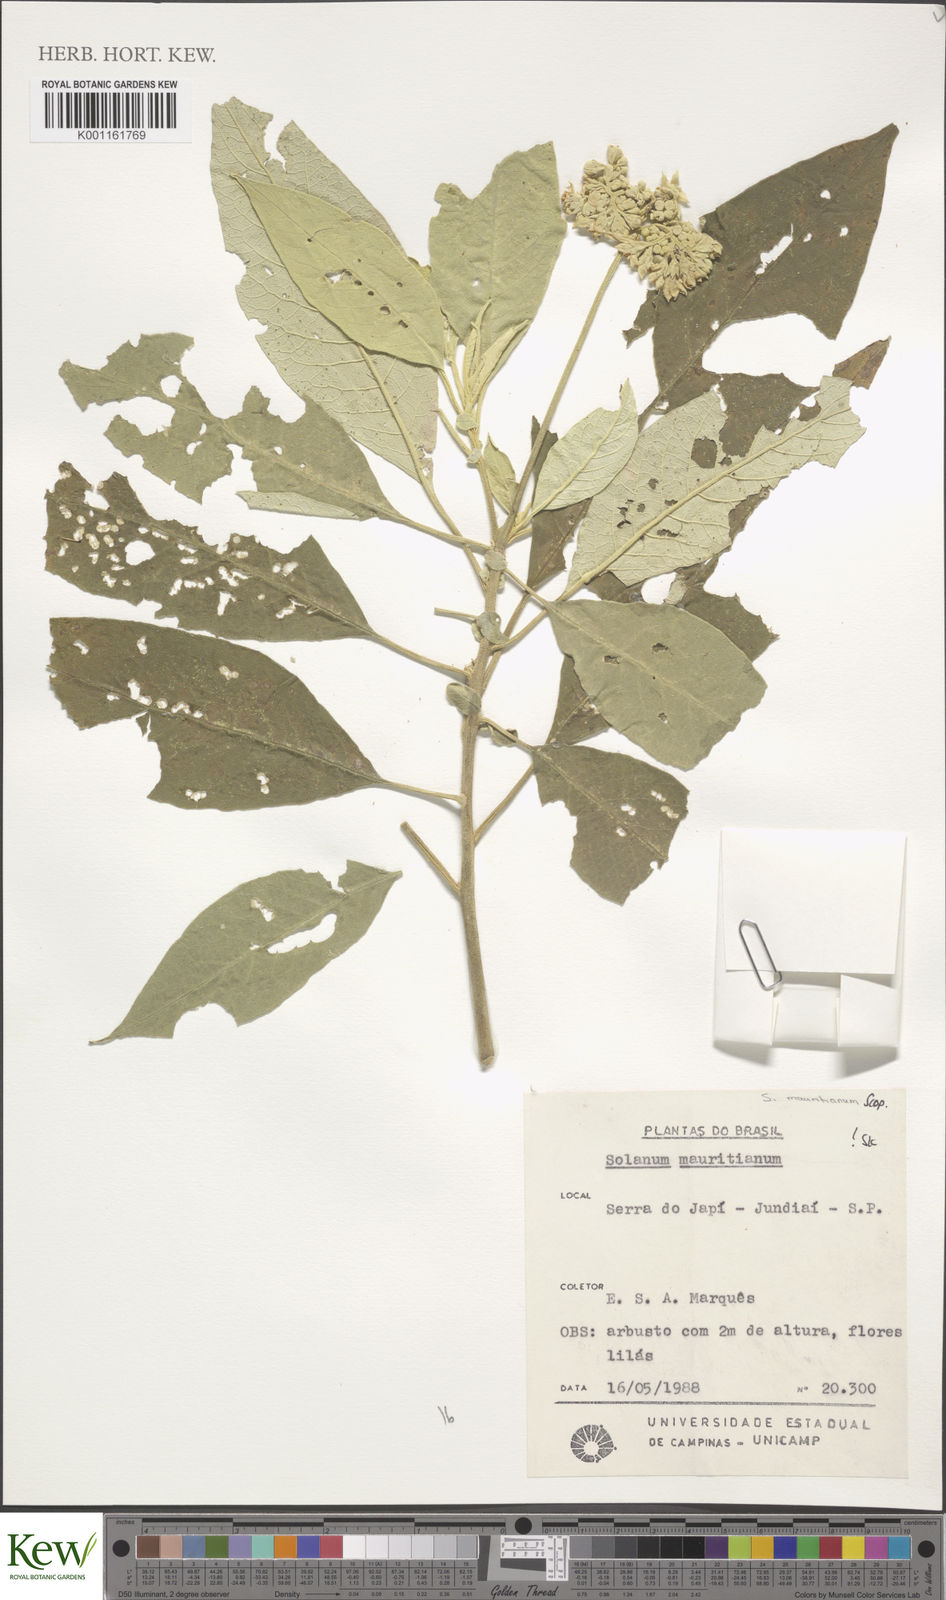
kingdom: Plantae
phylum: Tracheophyta
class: Magnoliopsida
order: Solanales
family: Solanaceae
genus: Solanum
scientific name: Solanum mauritianum
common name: Earleaf nightshade
